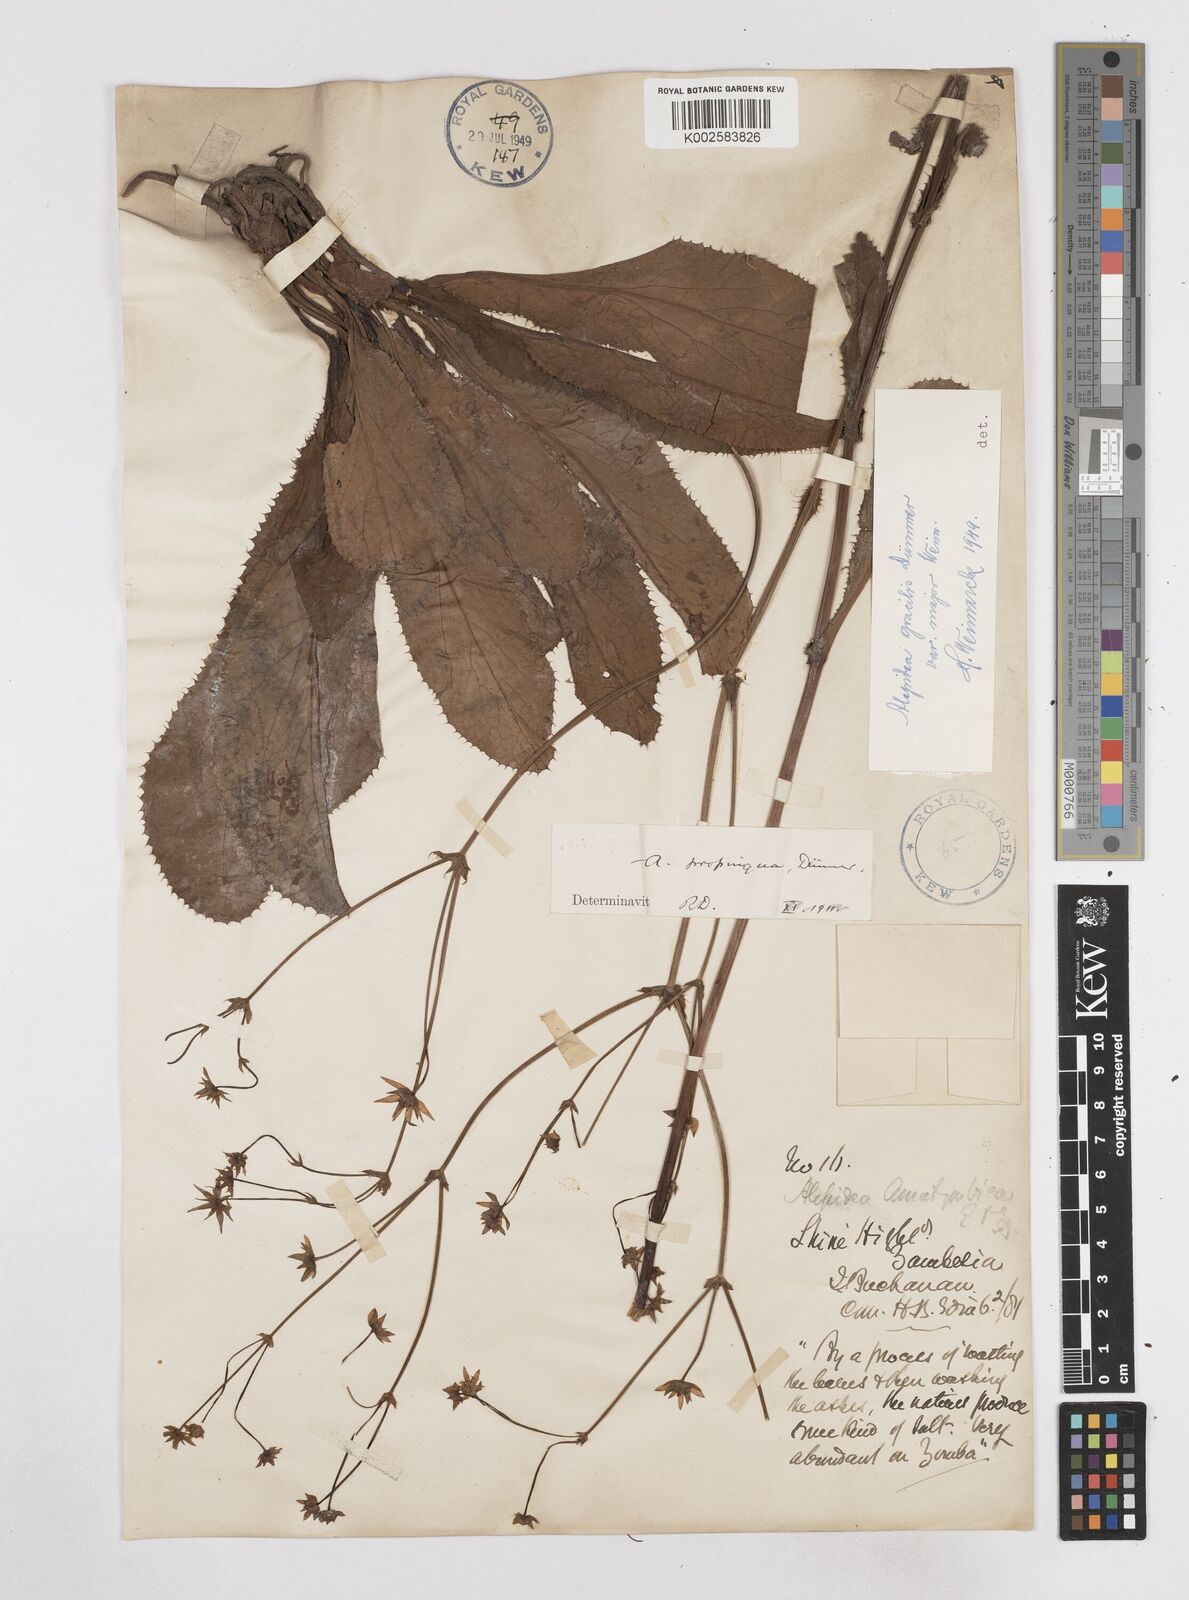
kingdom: Plantae
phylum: Tracheophyta
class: Magnoliopsida
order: Apiales
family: Apiaceae
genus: Alepidea
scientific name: Alepidea peduncularis
